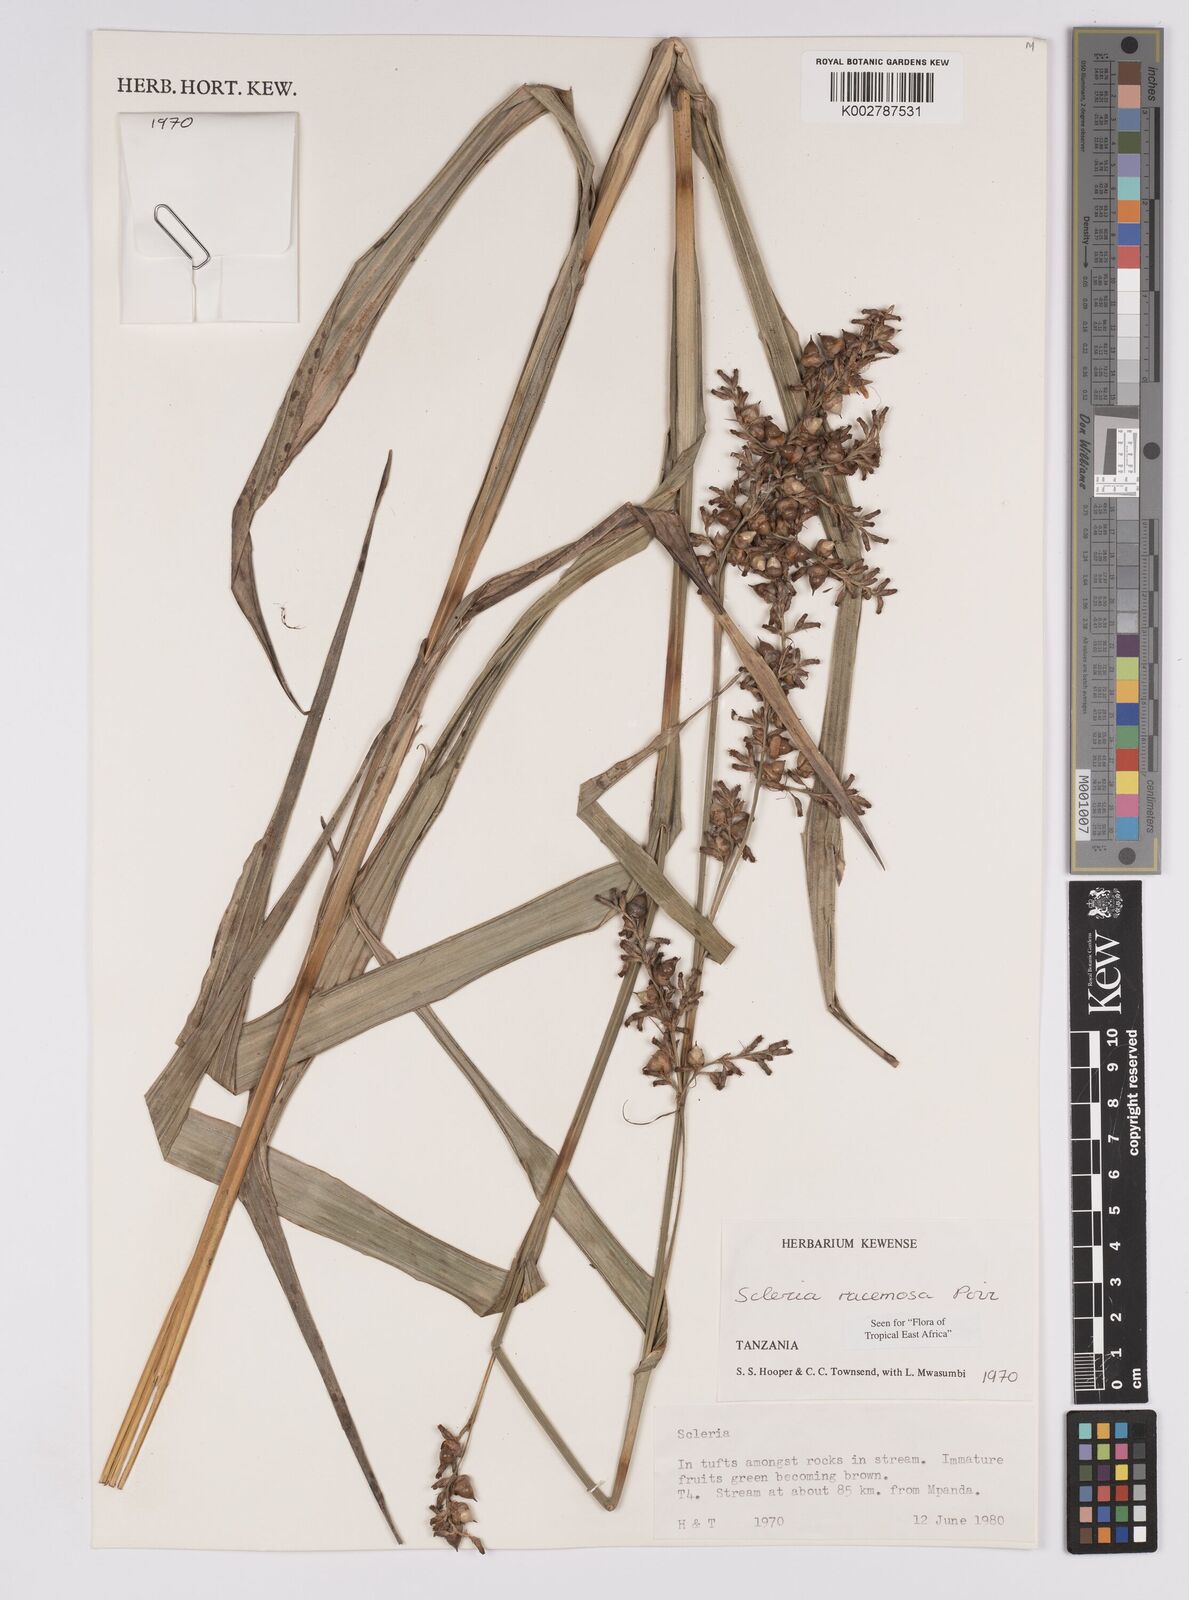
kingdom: Plantae
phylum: Tracheophyta
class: Liliopsida
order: Poales
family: Cyperaceae
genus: Scleria
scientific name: Scleria racemosa
